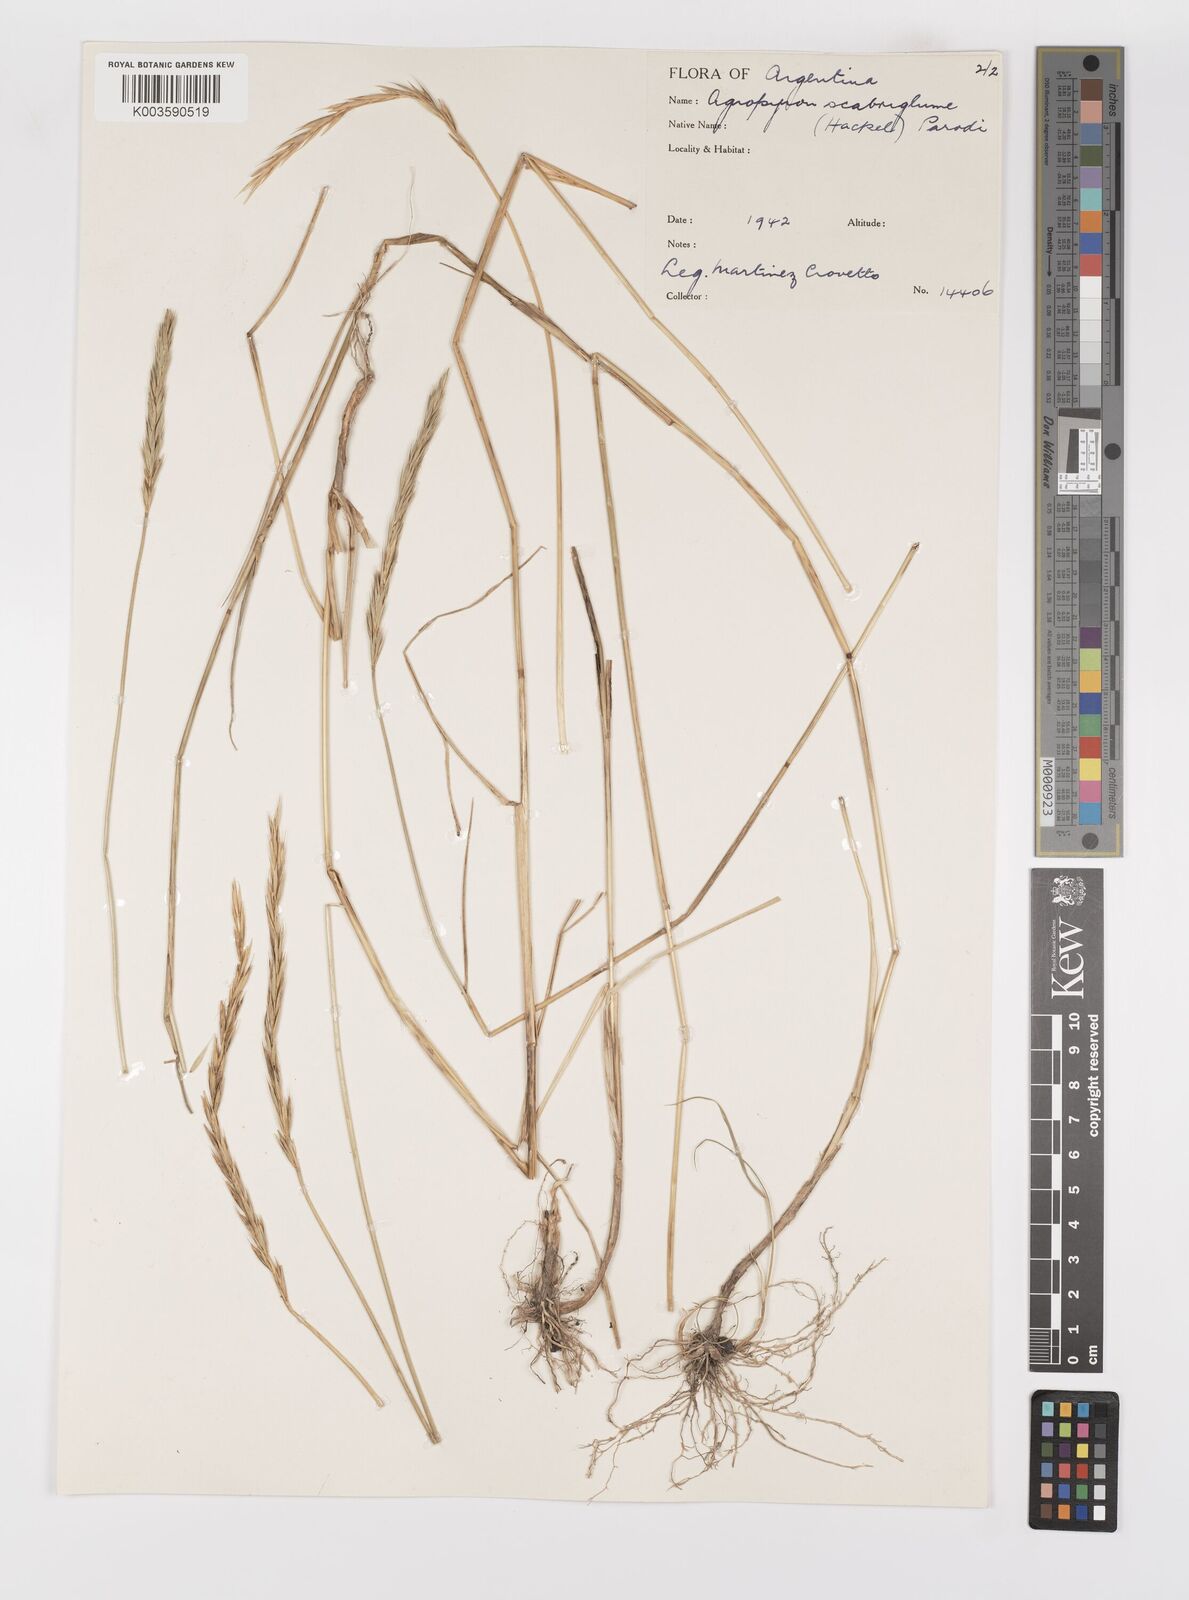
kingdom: Plantae
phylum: Tracheophyta
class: Liliopsida
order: Poales
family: Poaceae
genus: Elymus
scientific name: Elymus scabriglumis
